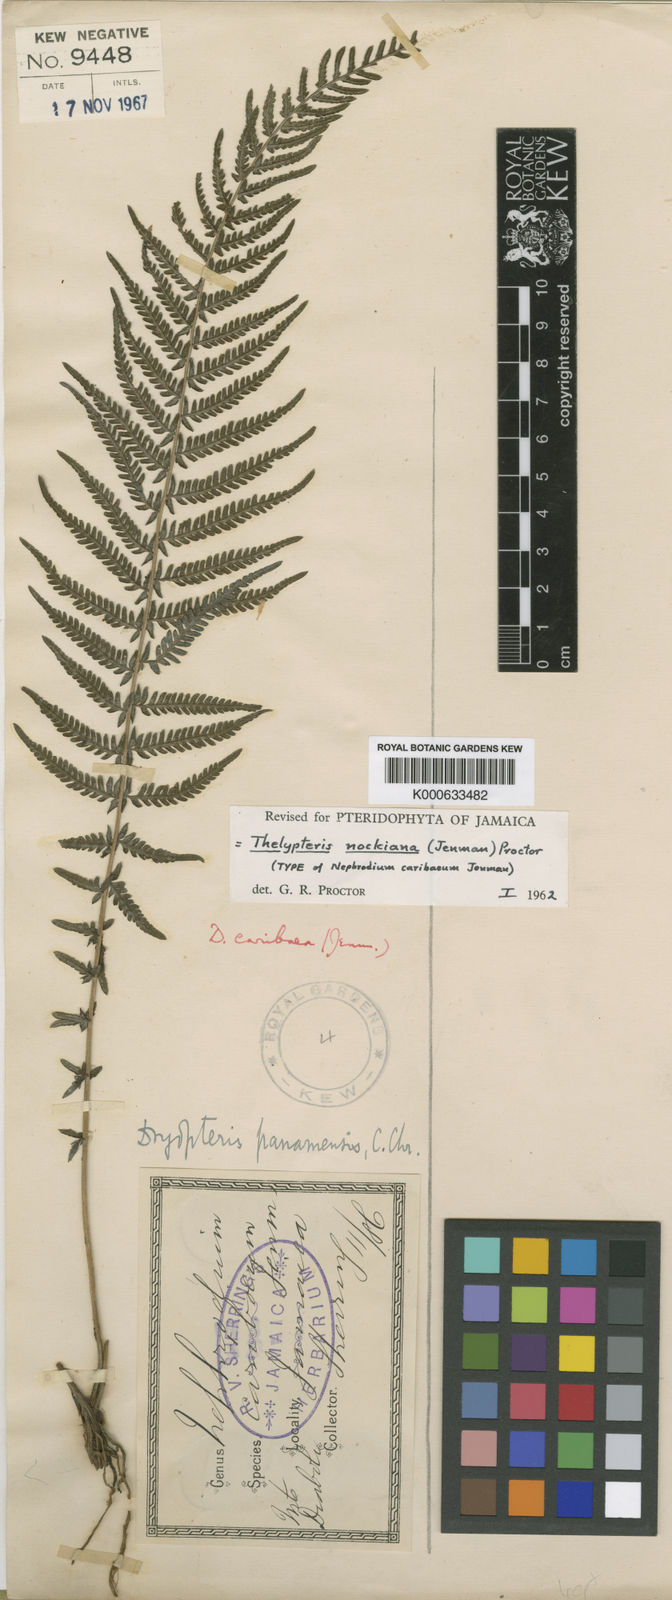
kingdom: Plantae
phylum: Tracheophyta
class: Polypodiopsida
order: Polypodiales
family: Thelypteridaceae
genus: Amauropelta
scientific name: Amauropelta nockiana
